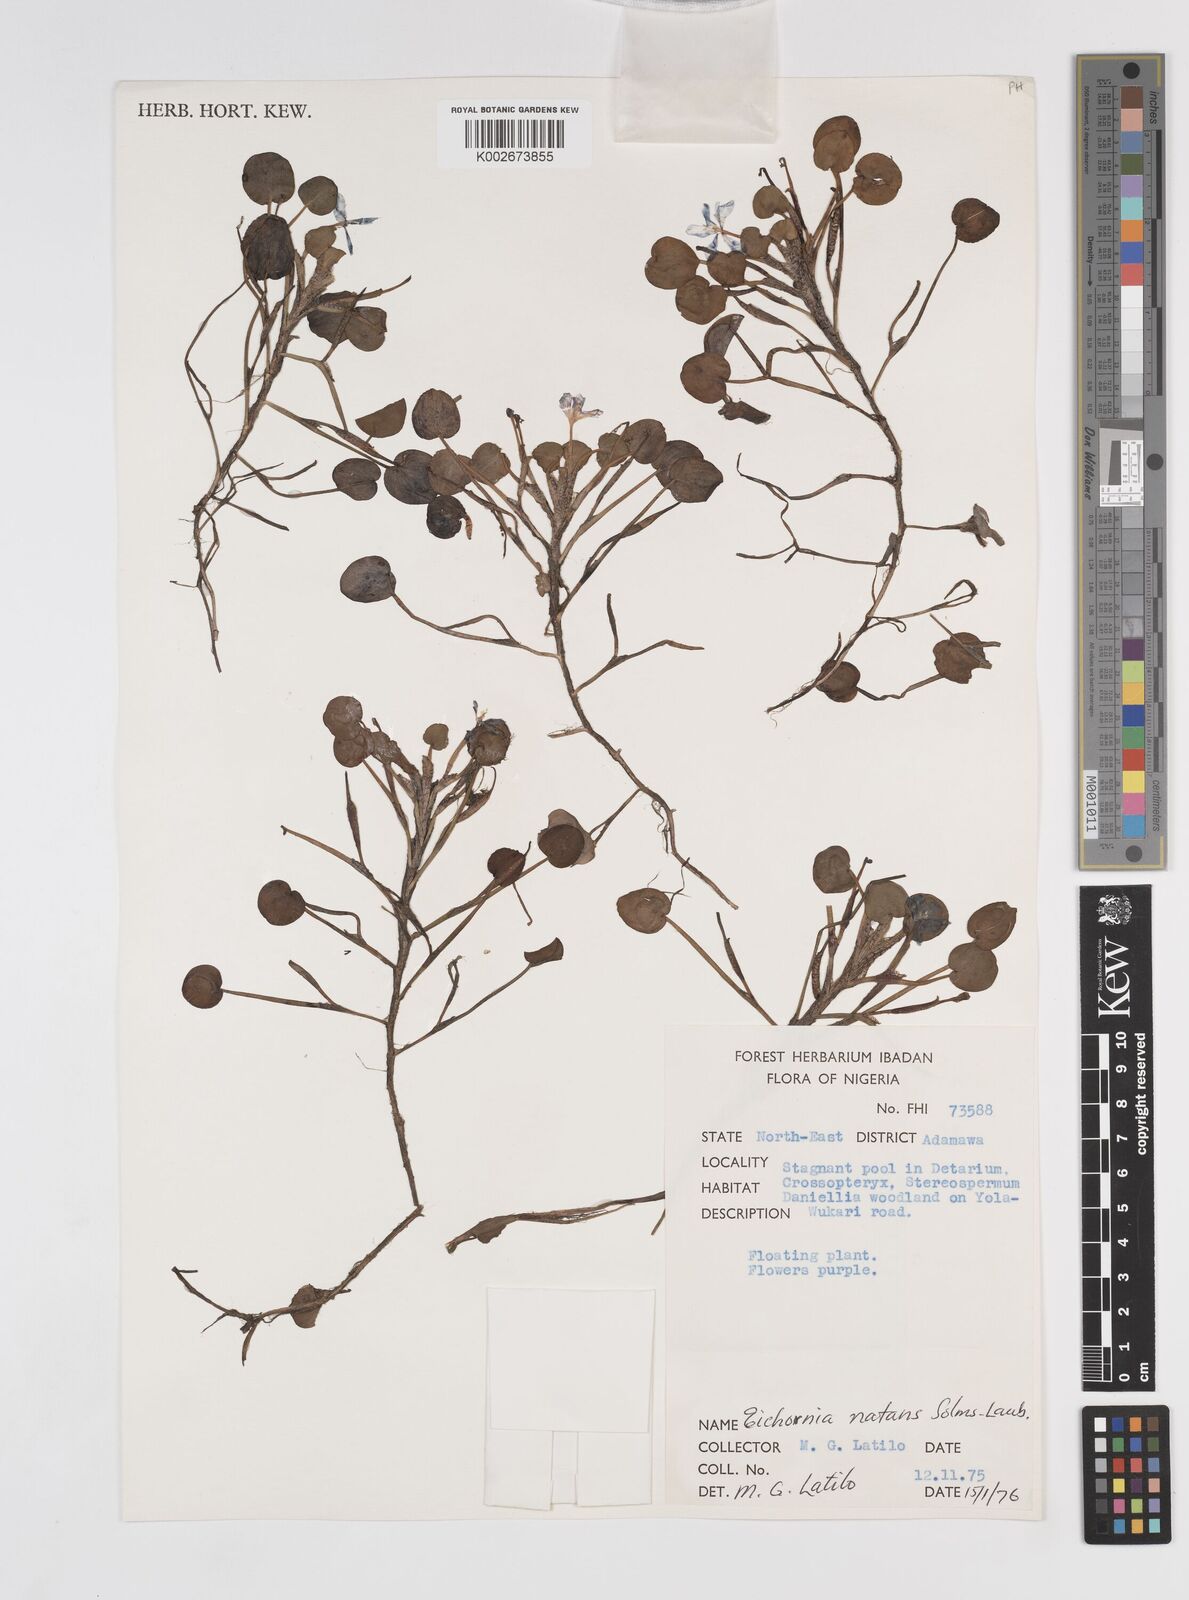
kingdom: Plantae
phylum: Tracheophyta
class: Liliopsida
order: Commelinales
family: Pontederiaceae
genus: Pontederia
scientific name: Pontederia natans
